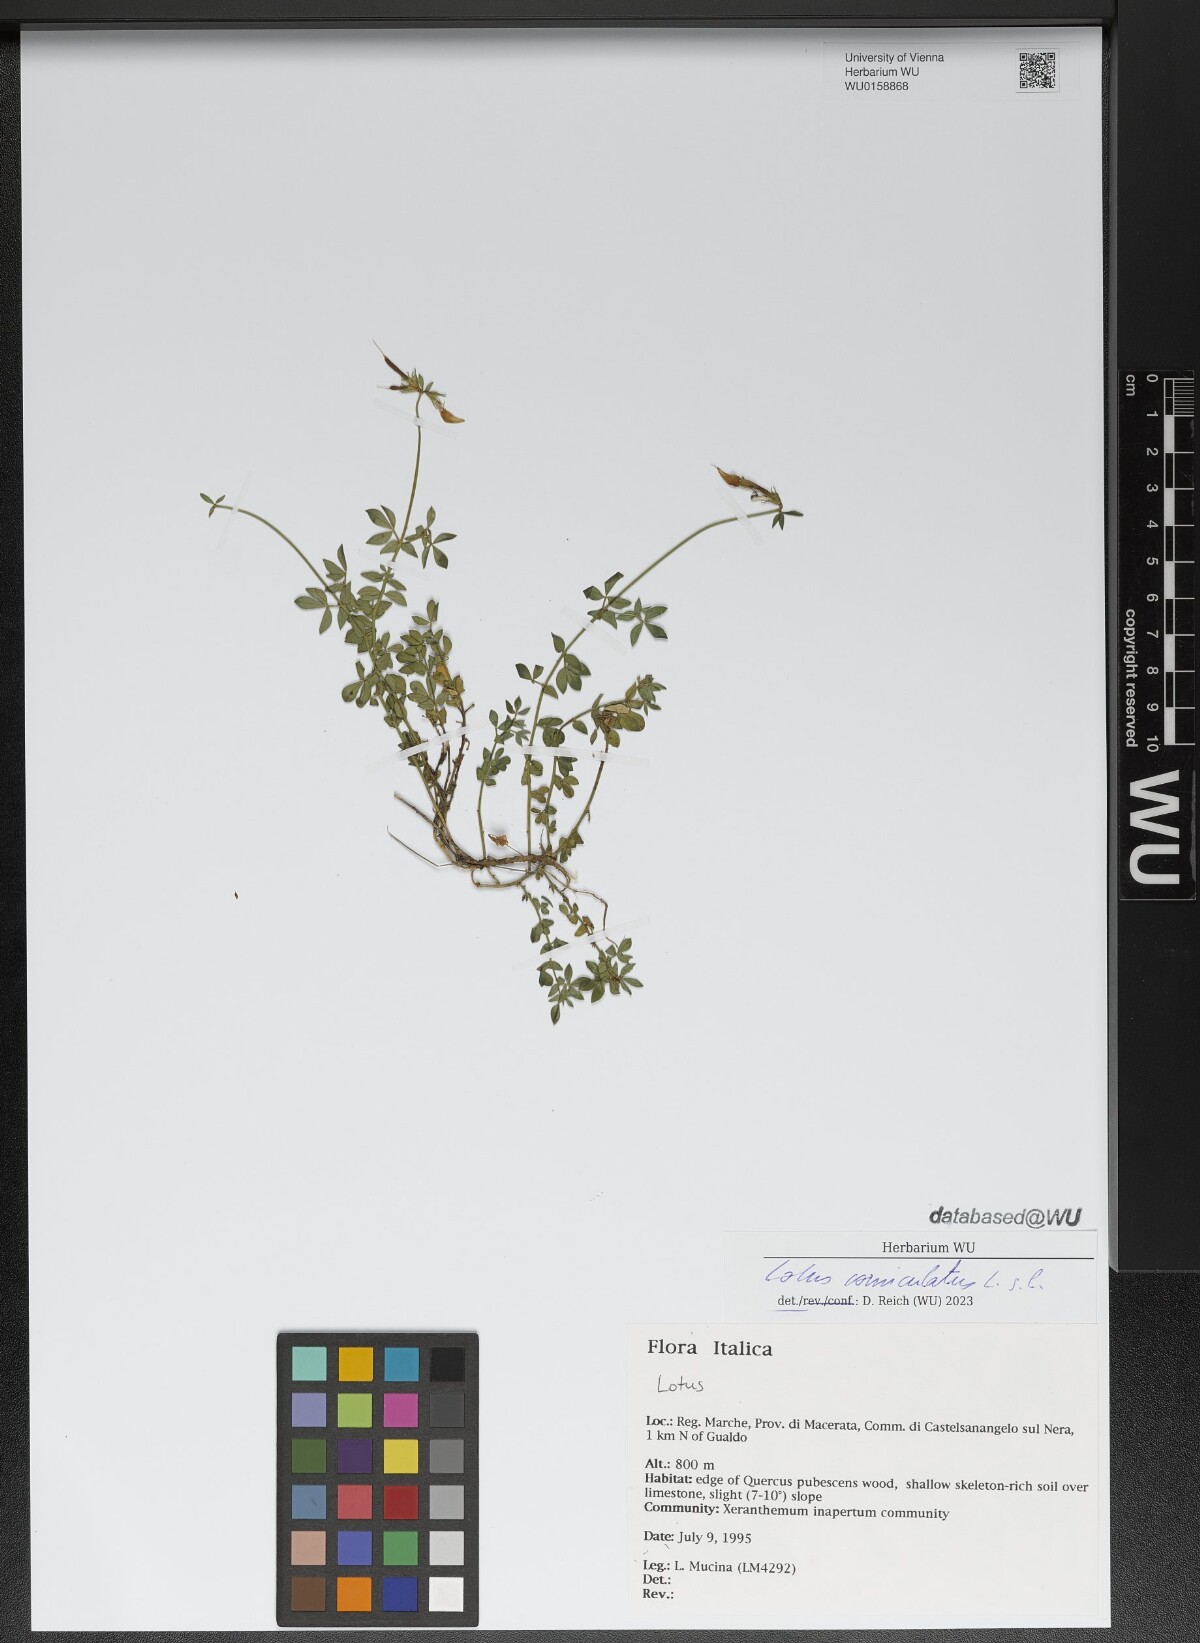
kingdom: Plantae
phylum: Tracheophyta
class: Magnoliopsida
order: Fabales
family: Fabaceae
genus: Lotus
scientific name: Lotus corniculatus
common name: Common bird's-foot-trefoil
